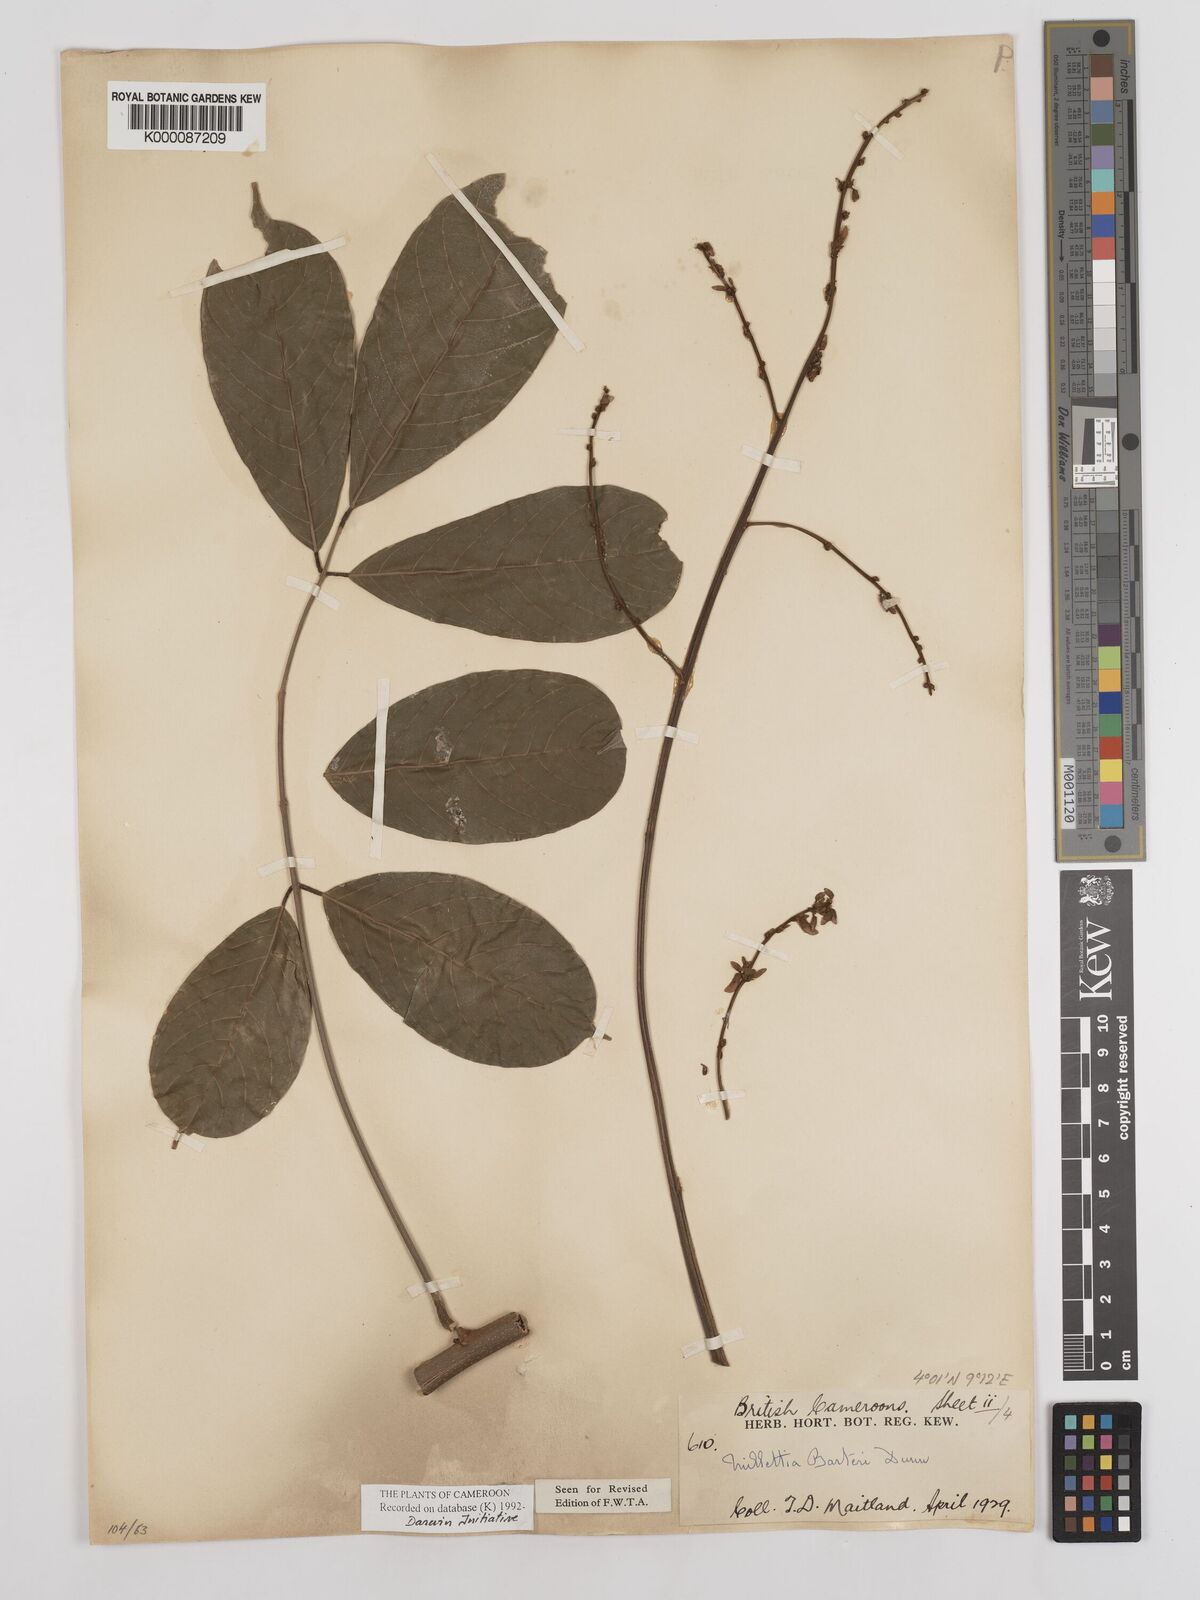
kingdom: Plantae
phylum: Tracheophyta
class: Magnoliopsida
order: Fabales
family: Fabaceae
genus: Millettia
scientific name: Millettia barteri
